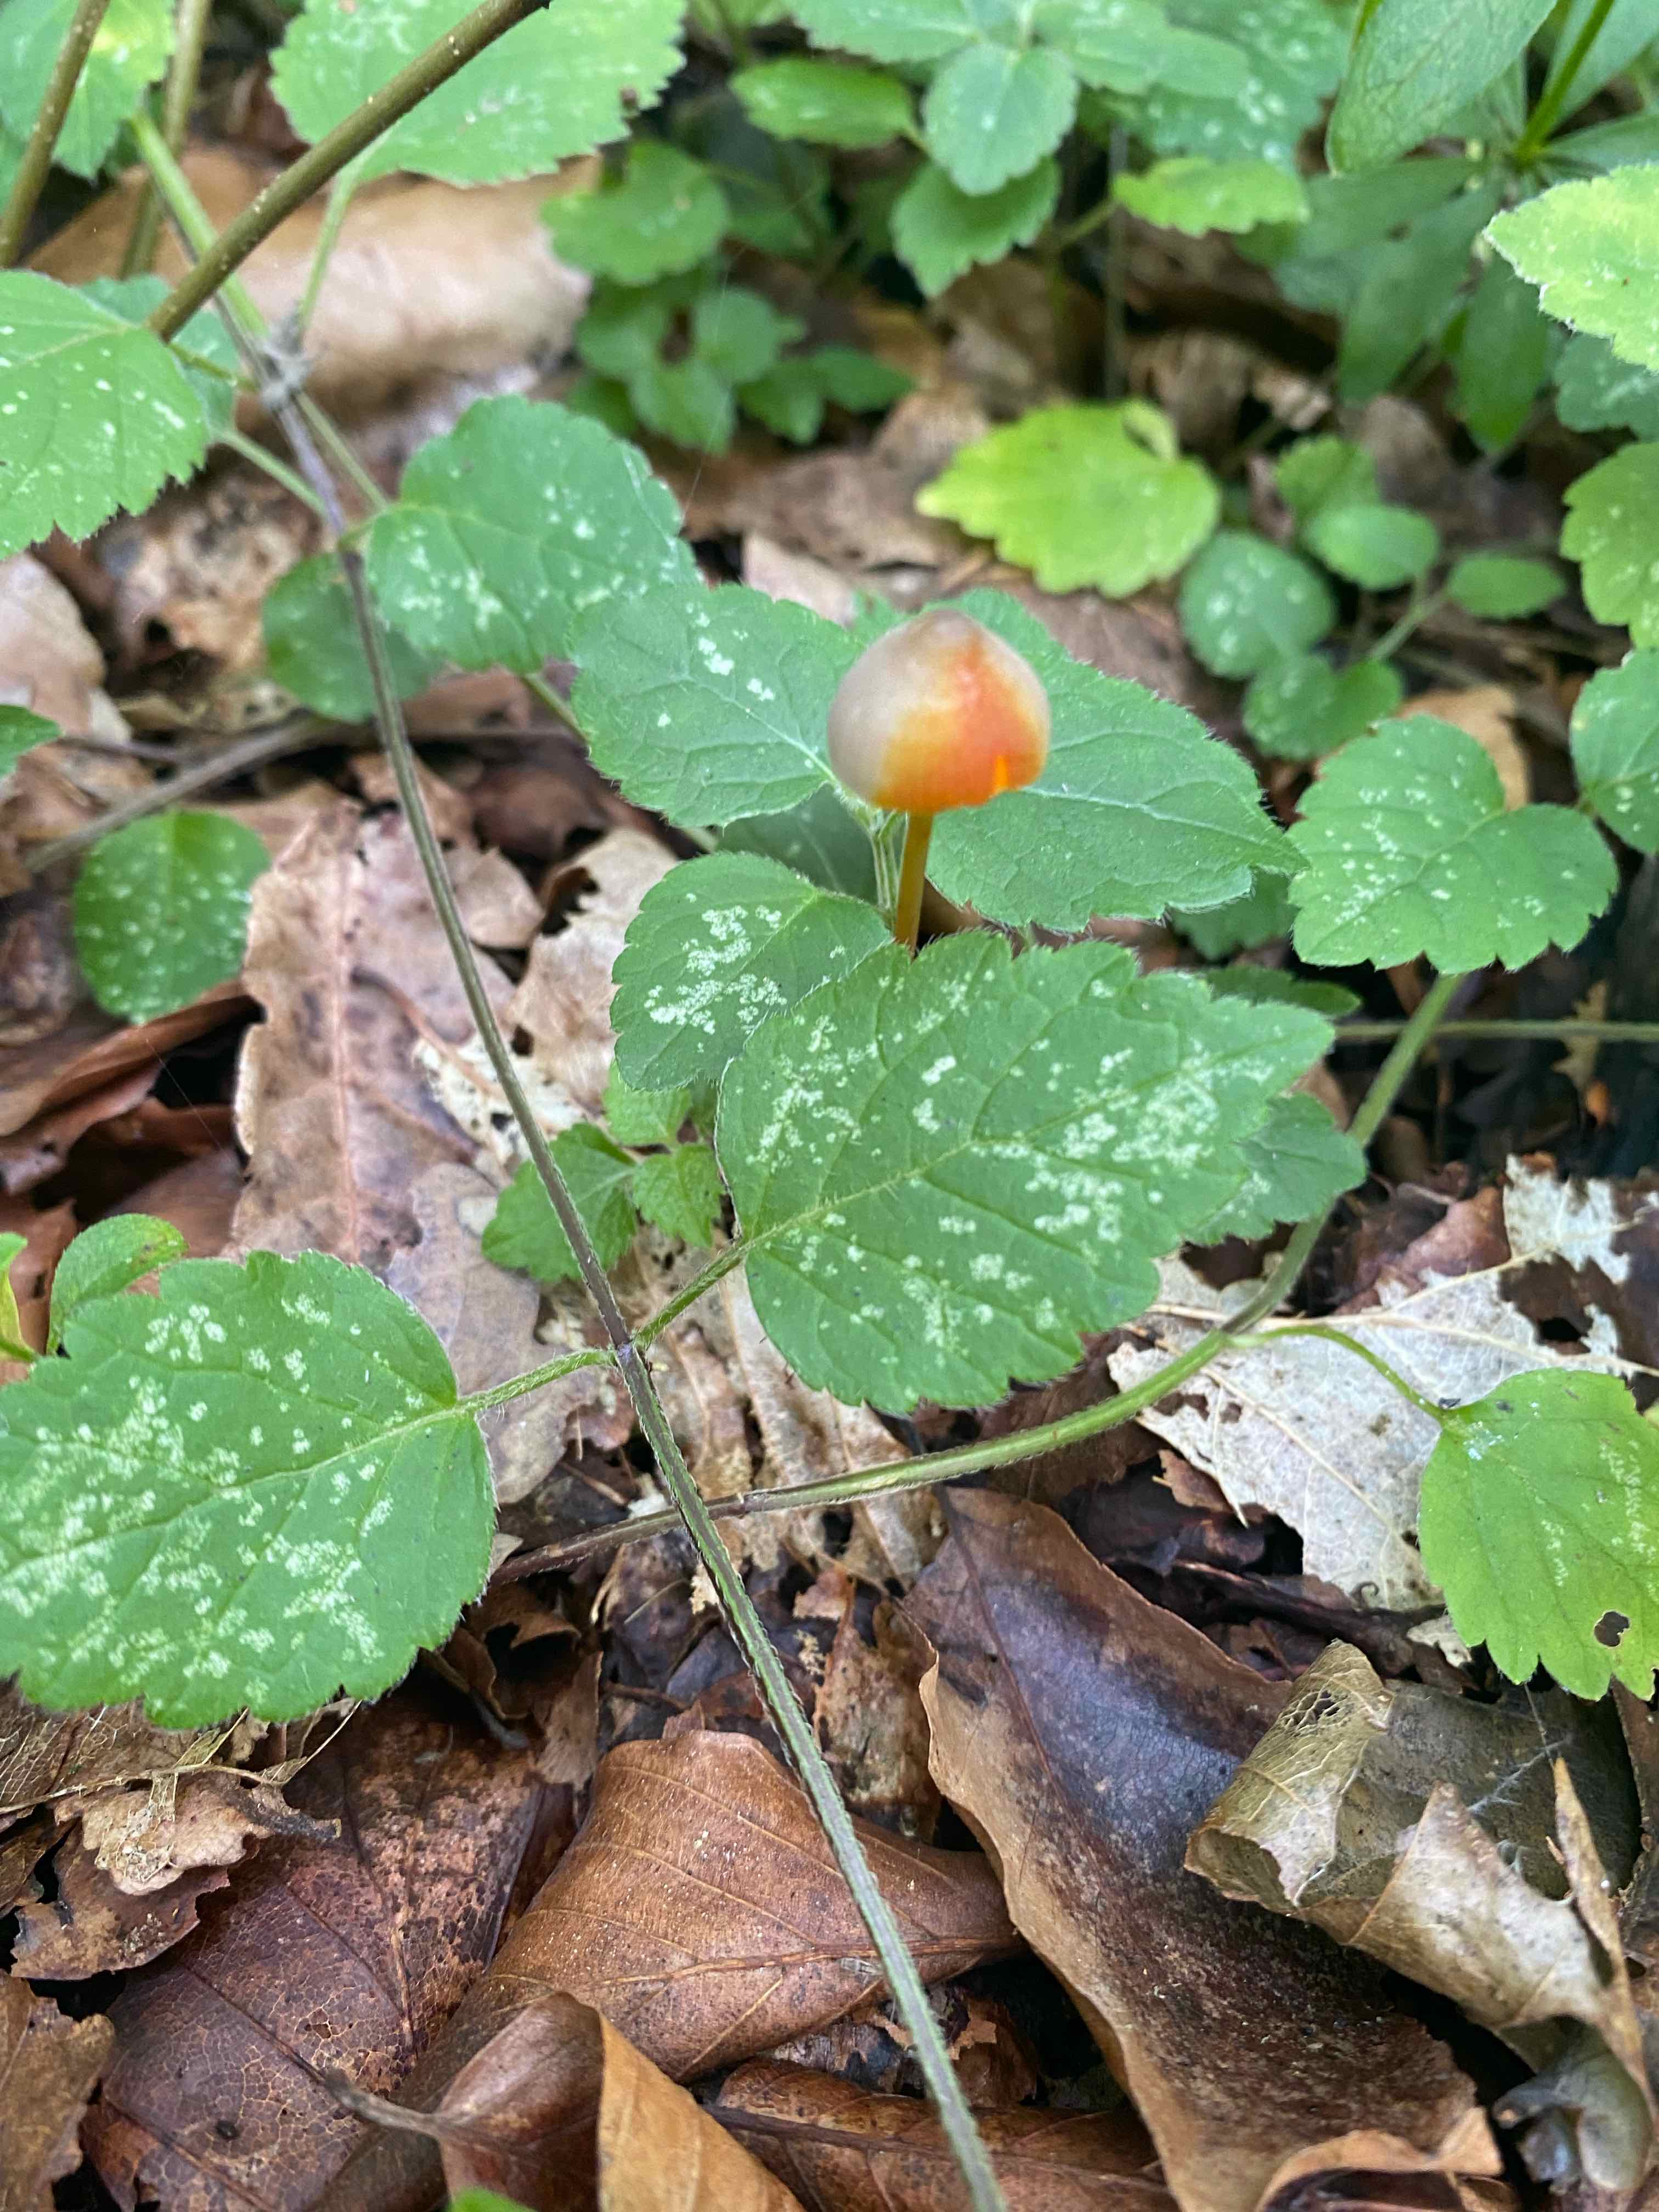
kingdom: Fungi
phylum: Basidiomycota
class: Agaricomycetes
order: Agaricales
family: Mycenaceae
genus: Mycena
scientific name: Mycena crocata
